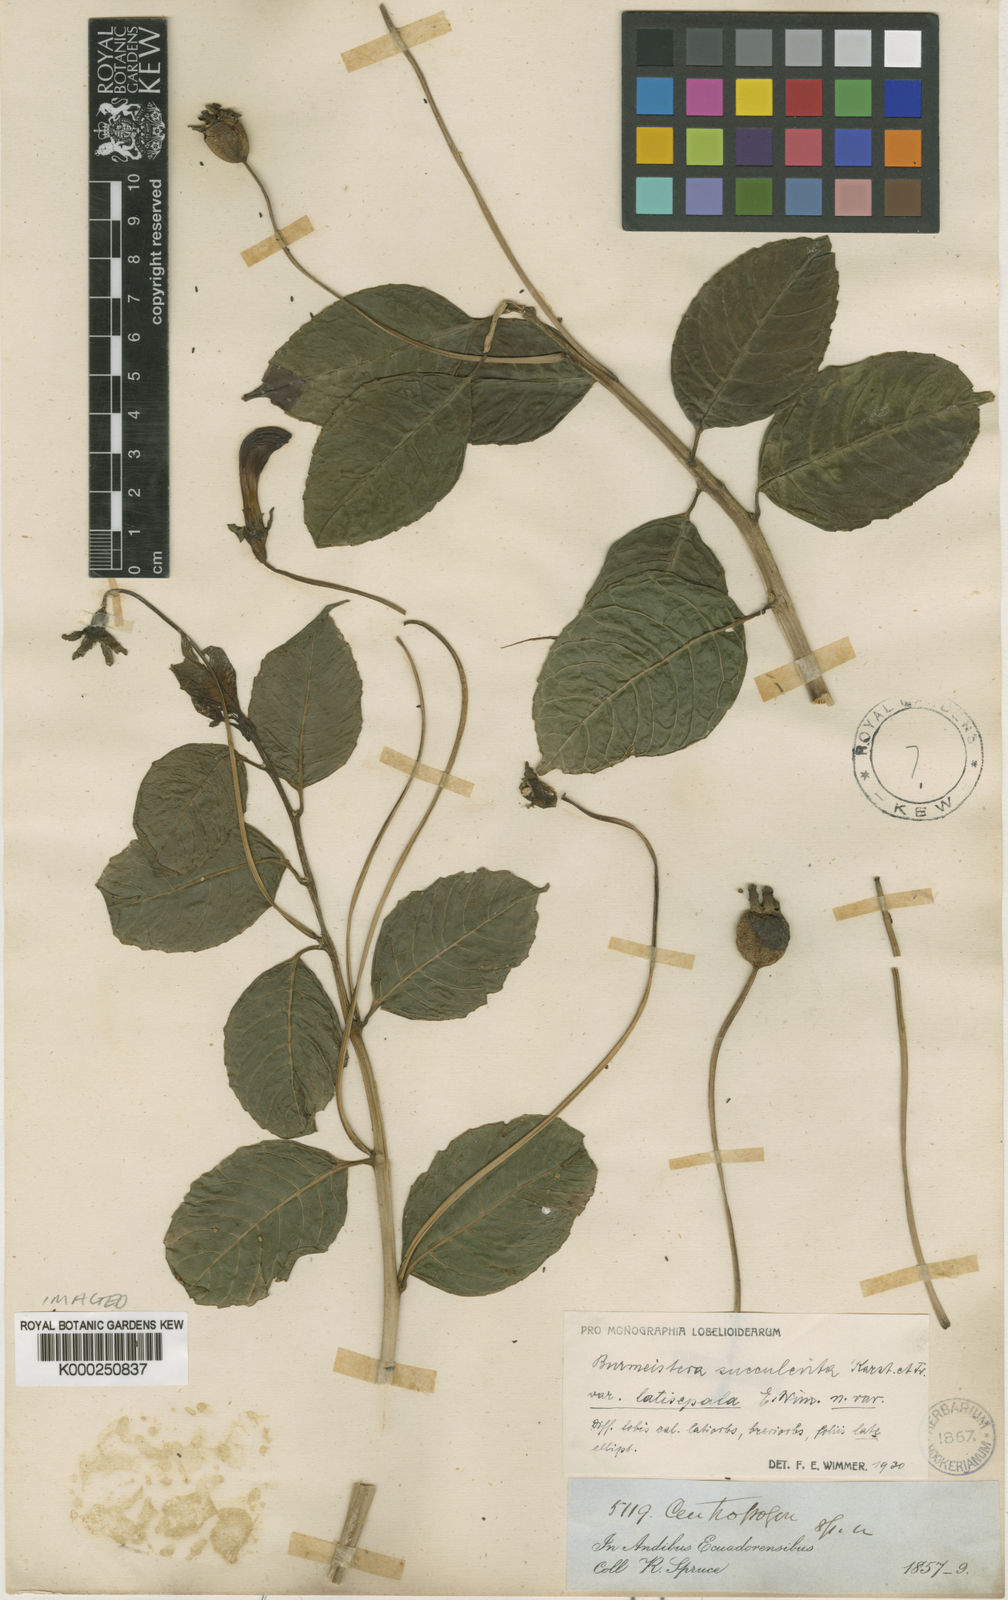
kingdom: Plantae
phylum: Tracheophyta
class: Magnoliopsida
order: Asterales
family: Campanulaceae
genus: Burmeistera
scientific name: Burmeistera succulenta
